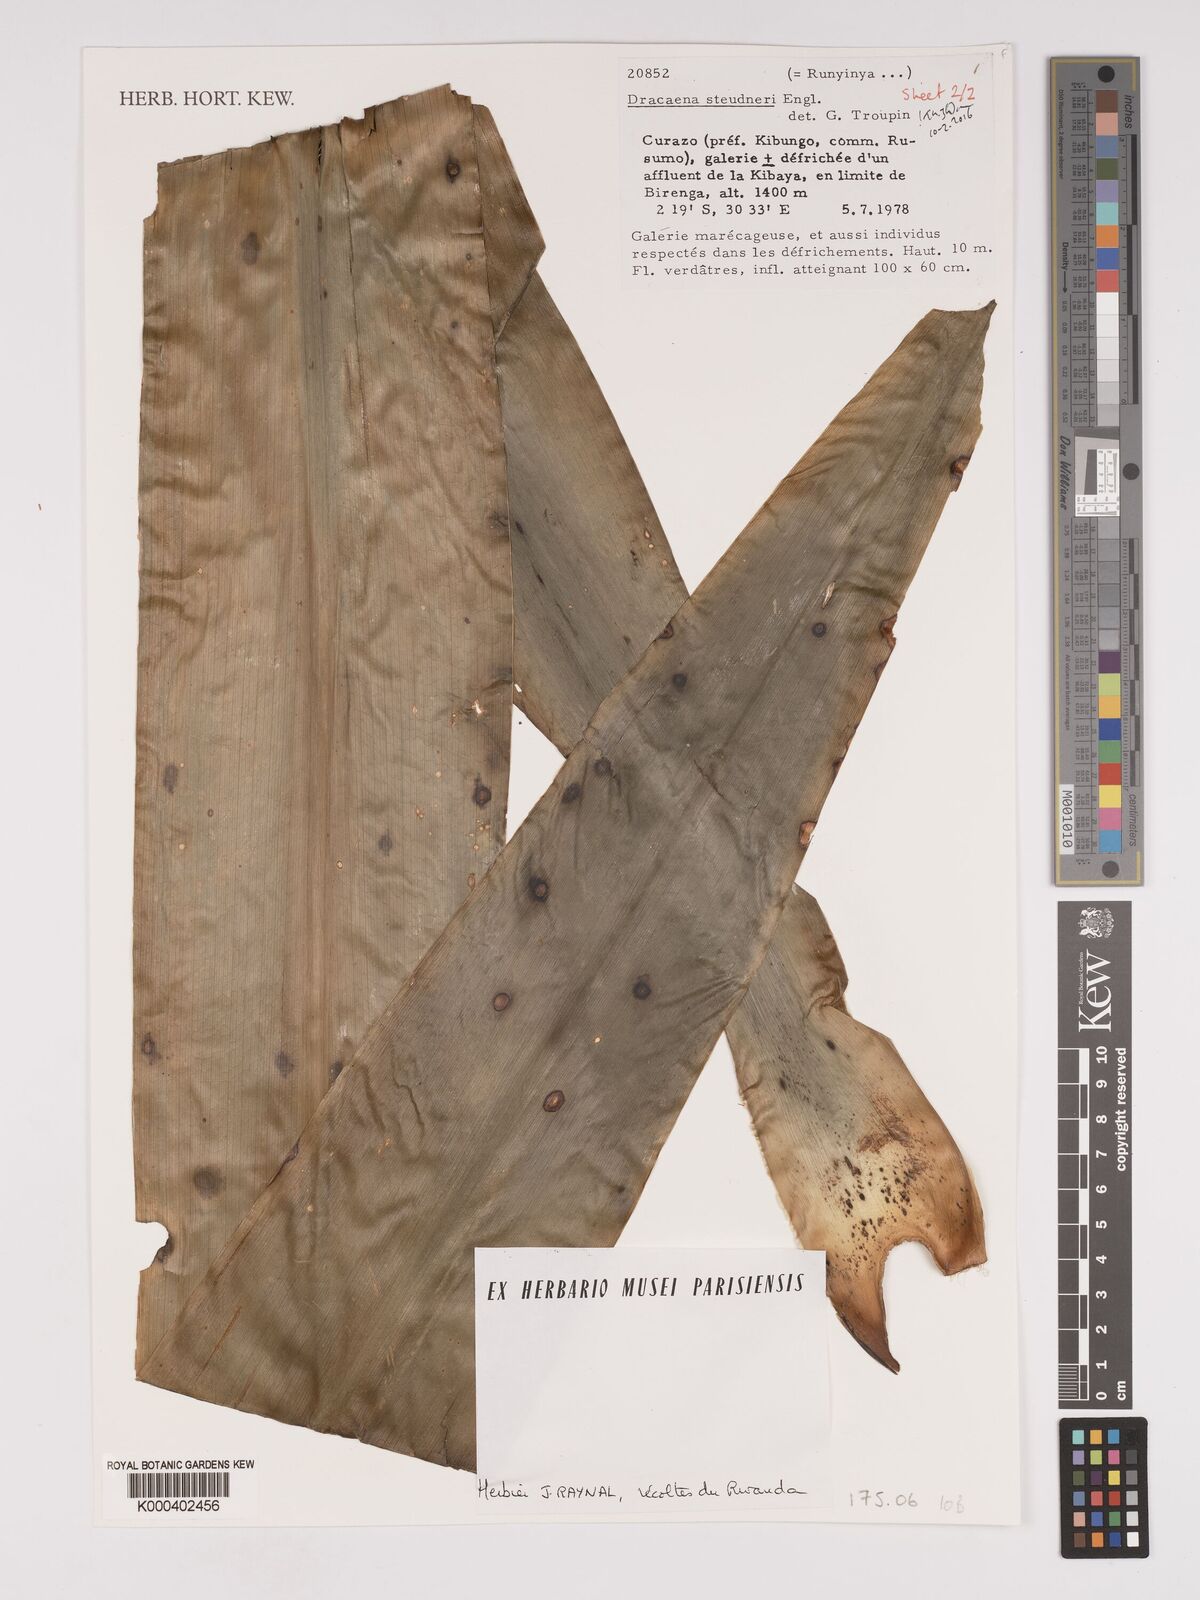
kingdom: Plantae
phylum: Tracheophyta
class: Liliopsida
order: Asparagales
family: Asparagaceae
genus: Dracaena
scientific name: Dracaena steudneri
